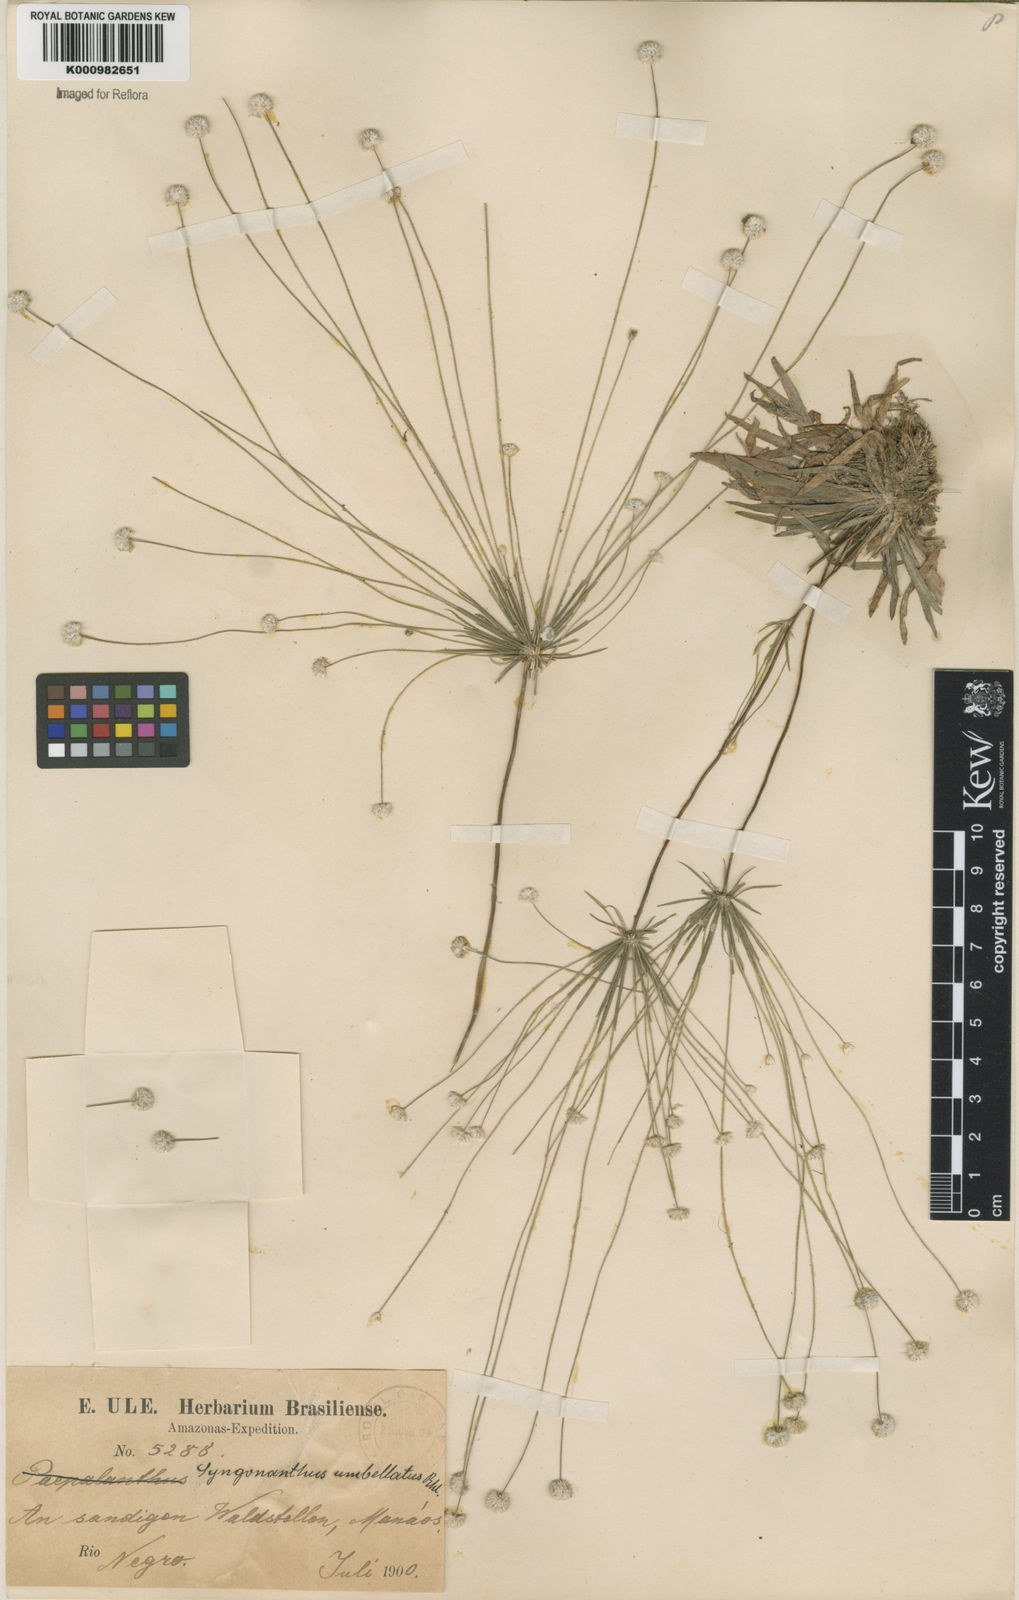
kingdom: Plantae
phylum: Tracheophyta
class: Liliopsida
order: Poales
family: Eriocaulaceae
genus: Syngonanthus
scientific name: Syngonanthus umbellatus
